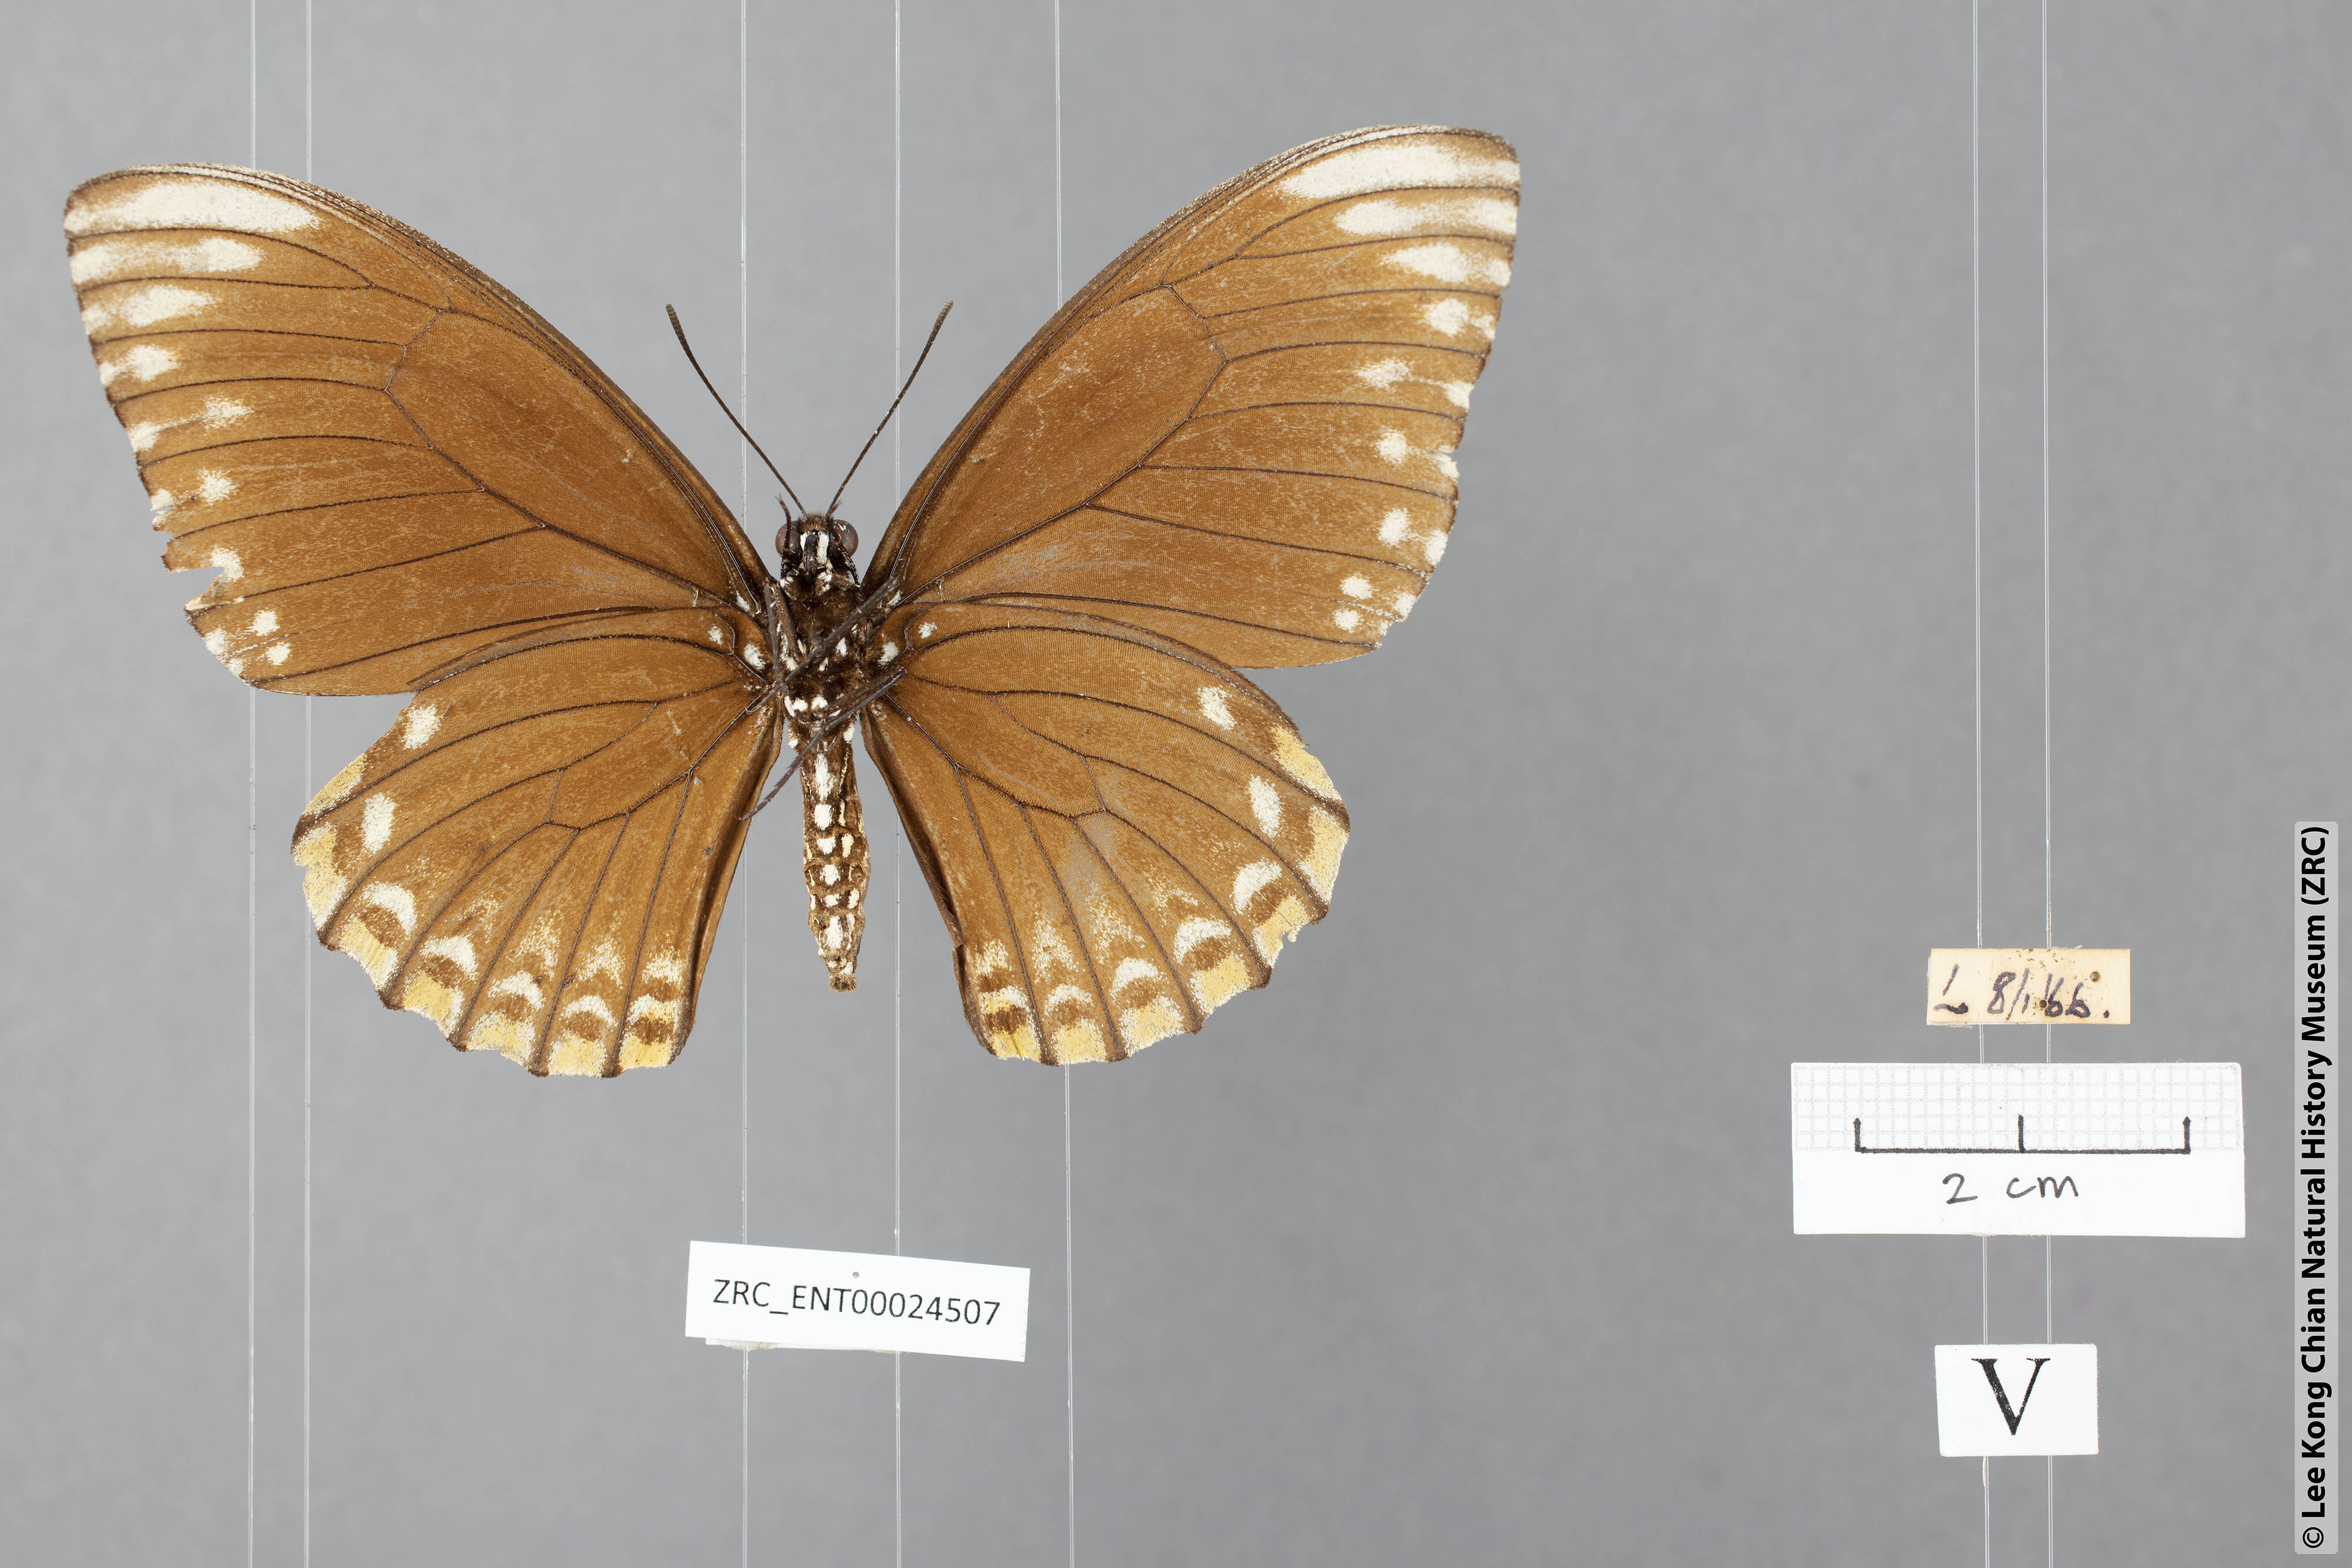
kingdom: Animalia
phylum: Arthropoda
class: Insecta
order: Lepidoptera
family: Papilionidae
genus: Chilasa
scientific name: Chilasa clytia
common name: Common mime
